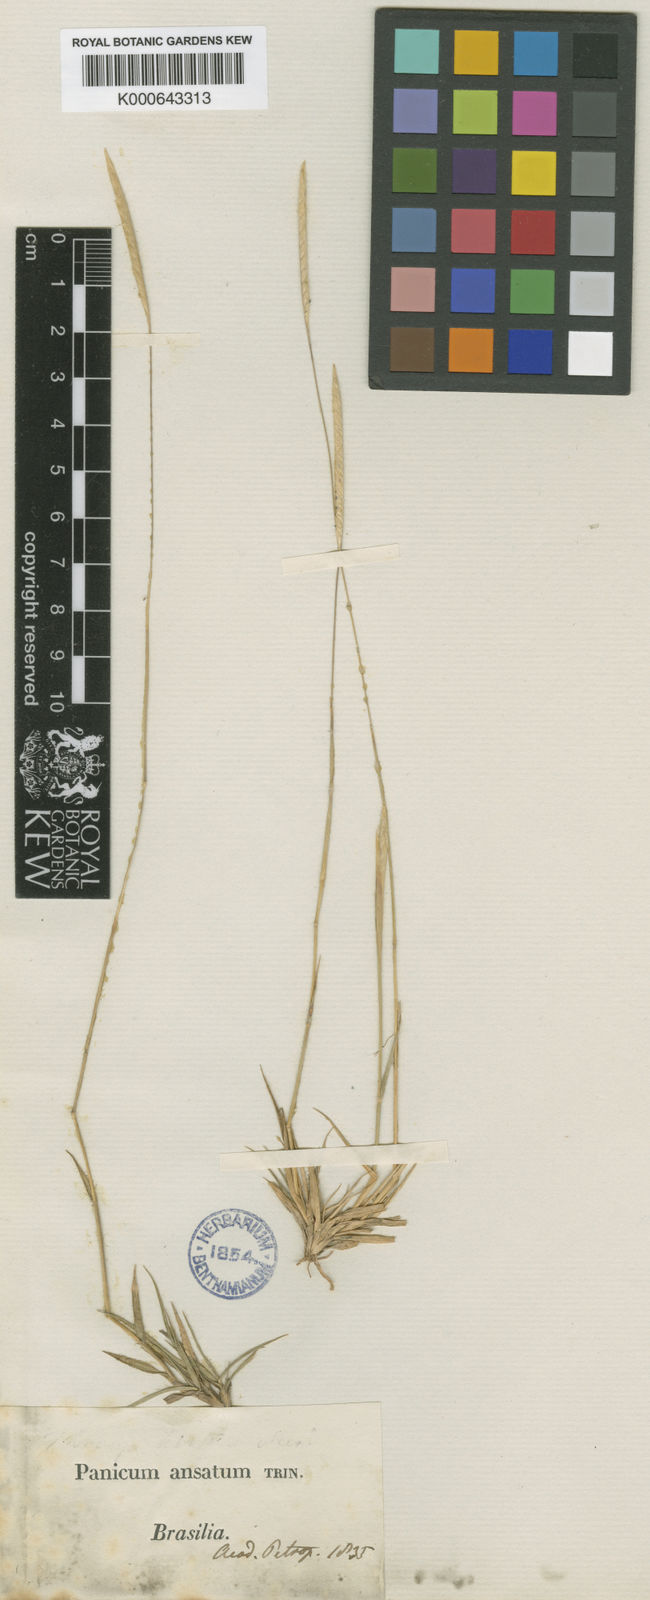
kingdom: Plantae
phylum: Tracheophyta
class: Liliopsida
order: Poales
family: Poaceae
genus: Mesosetum
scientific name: Mesosetum ansatum
